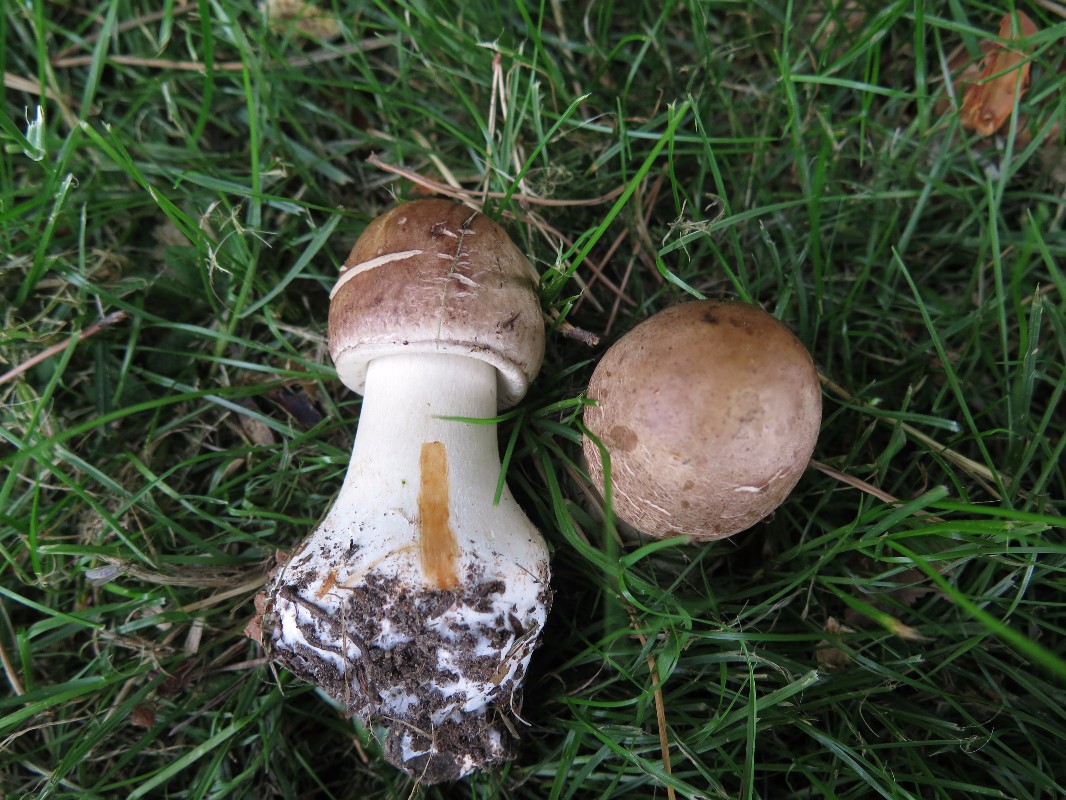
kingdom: Fungi
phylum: Basidiomycota
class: Agaricomycetes
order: Agaricales
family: Agaricaceae
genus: Chlorophyllum
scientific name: Chlorophyllum
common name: rabarberhat
